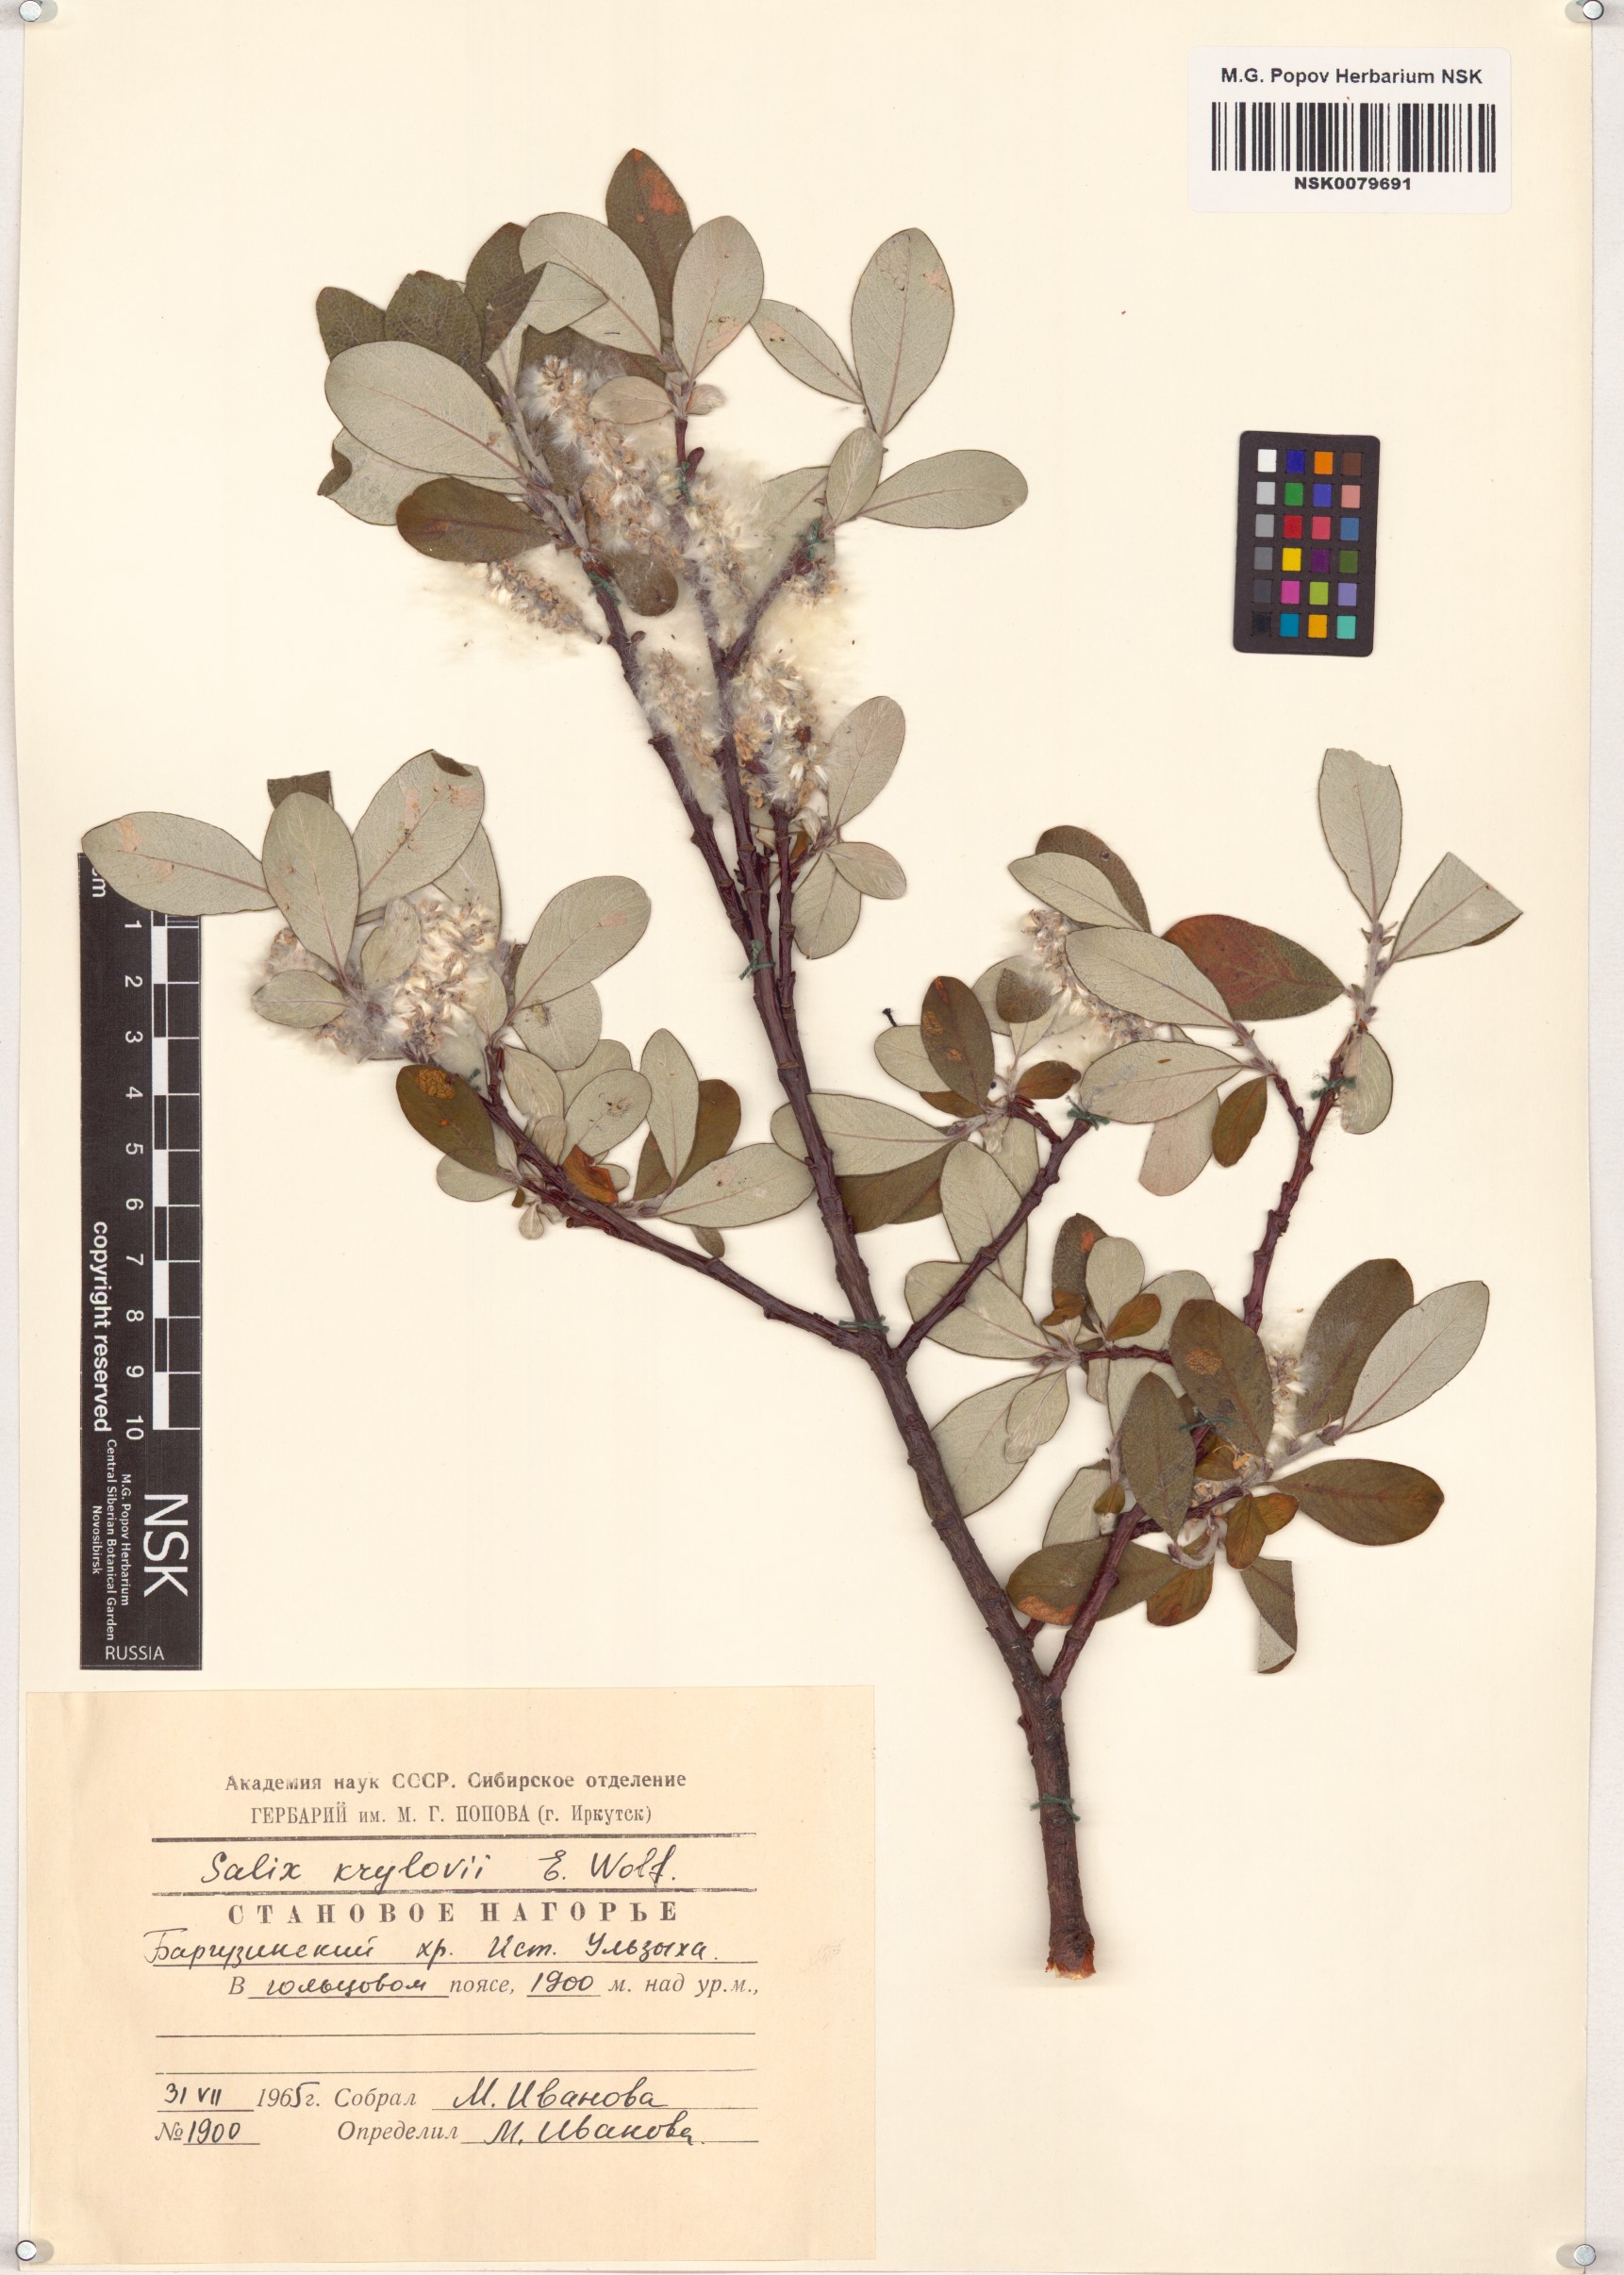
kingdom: Plantae
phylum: Tracheophyta
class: Magnoliopsida
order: Malpighiales
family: Salicaceae
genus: Salix
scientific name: Salix krylovii
